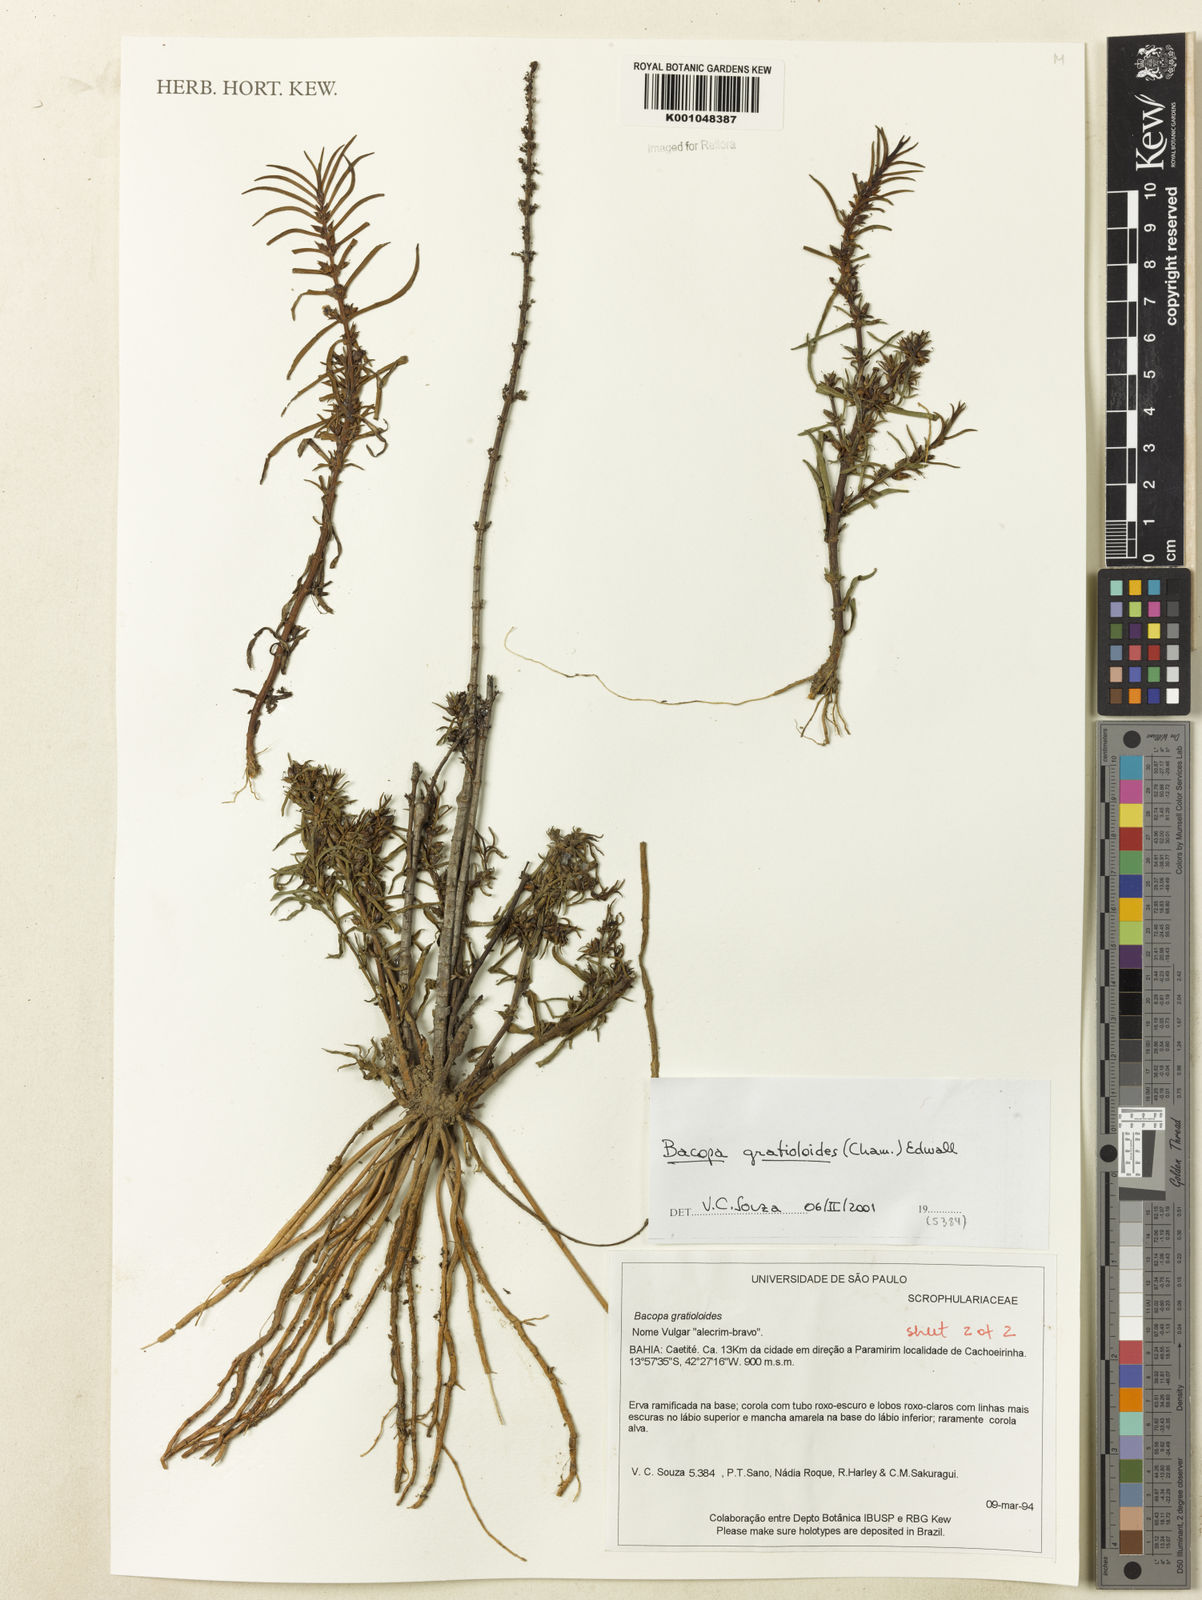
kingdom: Plantae
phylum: Tracheophyta
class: Magnoliopsida
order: Lamiales
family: Plantaginaceae
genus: Bacopa
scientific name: Bacopa
